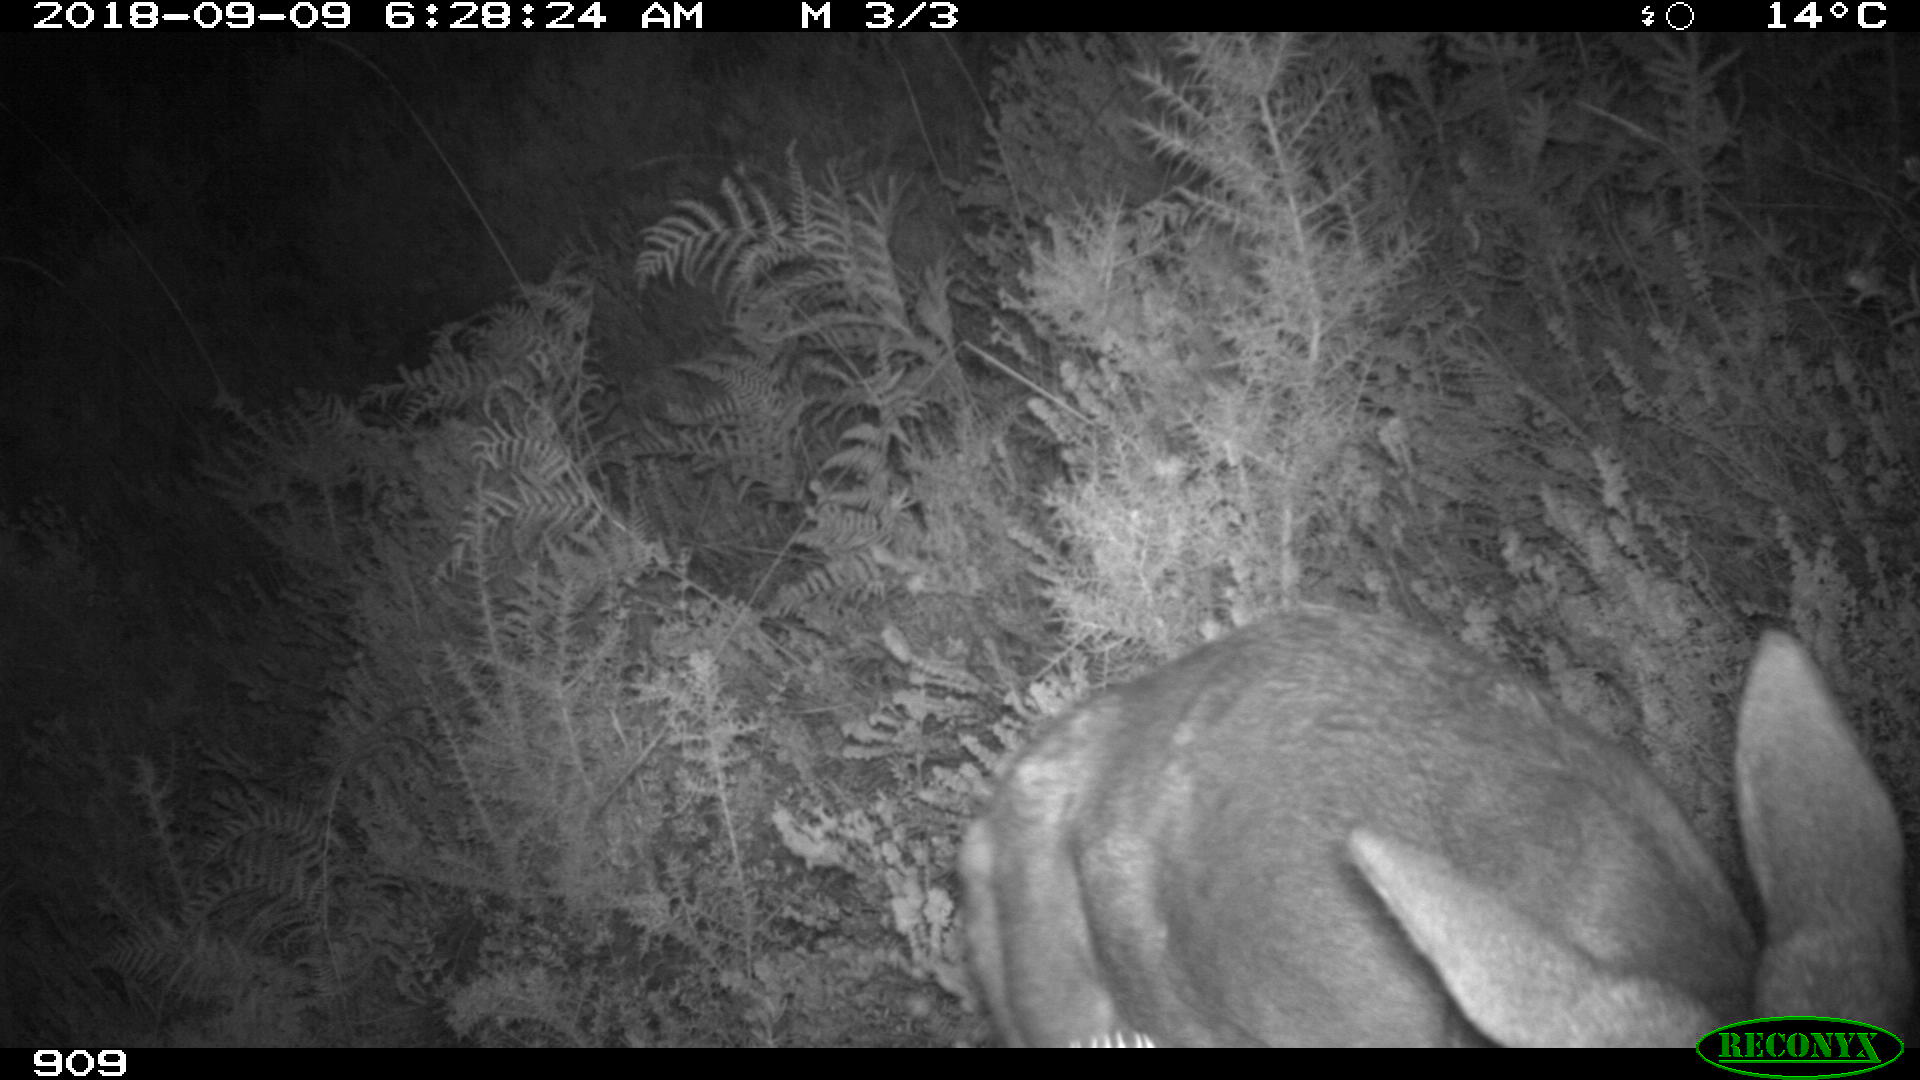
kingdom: Animalia
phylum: Chordata
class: Mammalia
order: Artiodactyla
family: Cervidae
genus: Capreolus
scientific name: Capreolus capreolus
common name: Western roe deer
